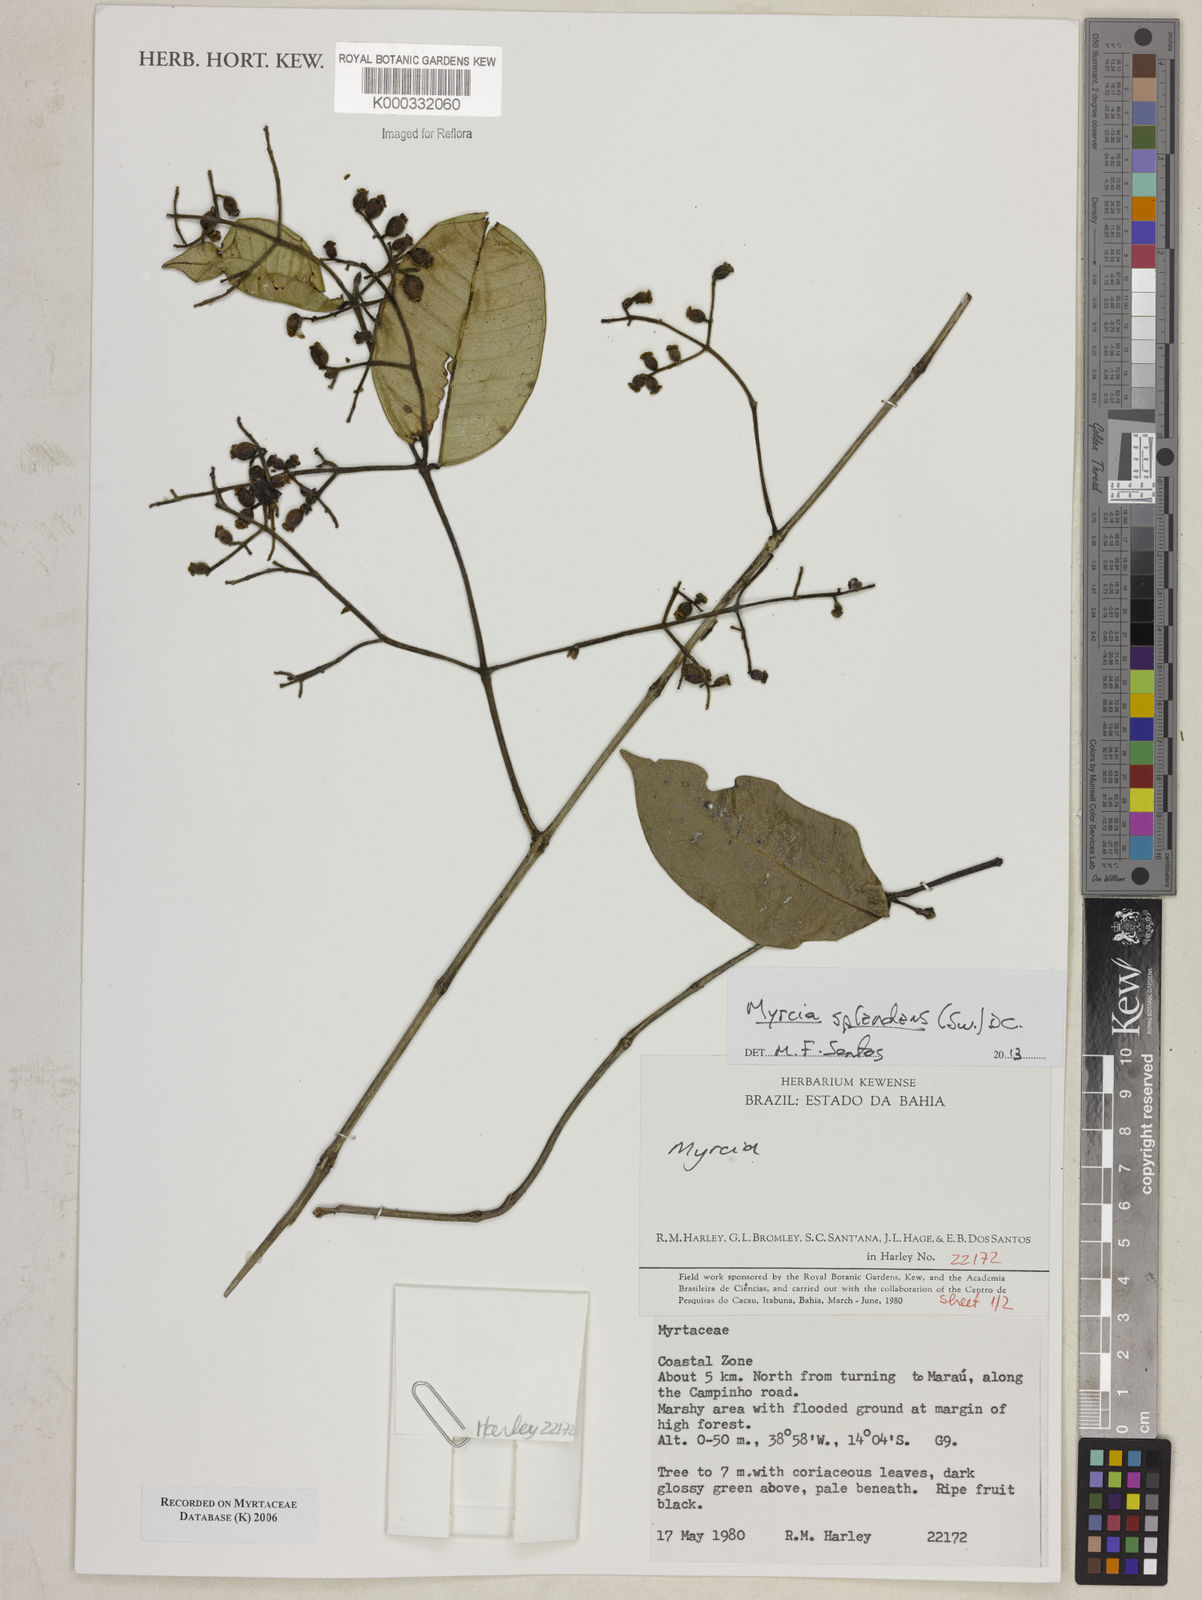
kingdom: Plantae
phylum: Tracheophyta
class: Magnoliopsida
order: Myrtales
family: Myrtaceae
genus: Myrcia
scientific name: Myrcia
